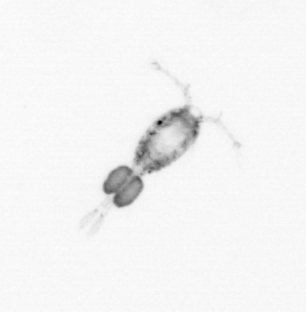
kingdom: Animalia
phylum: Arthropoda
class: Copepoda
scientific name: Copepoda
